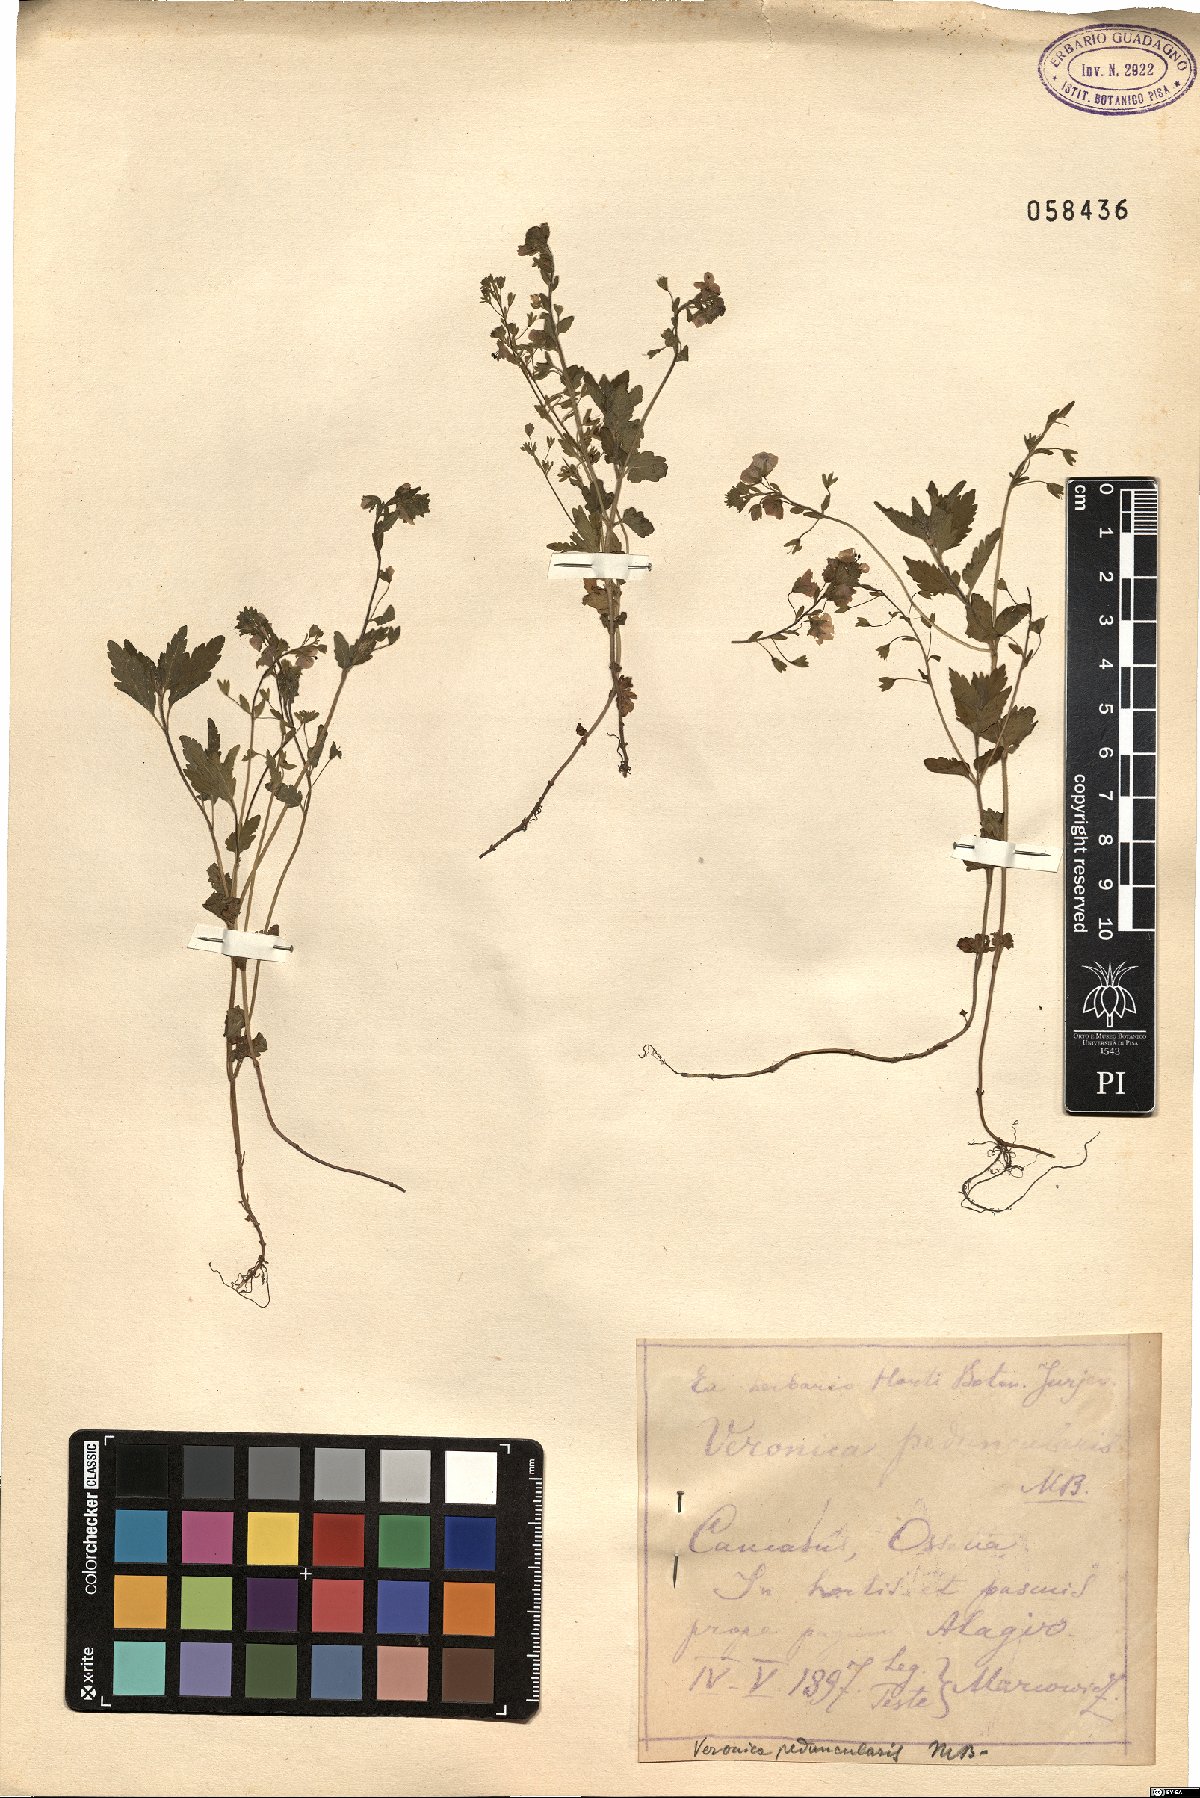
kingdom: Plantae
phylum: Tracheophyta
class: Magnoliopsida
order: Lamiales
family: Plantaginaceae
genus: Veronica
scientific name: Veronica peduncularis
